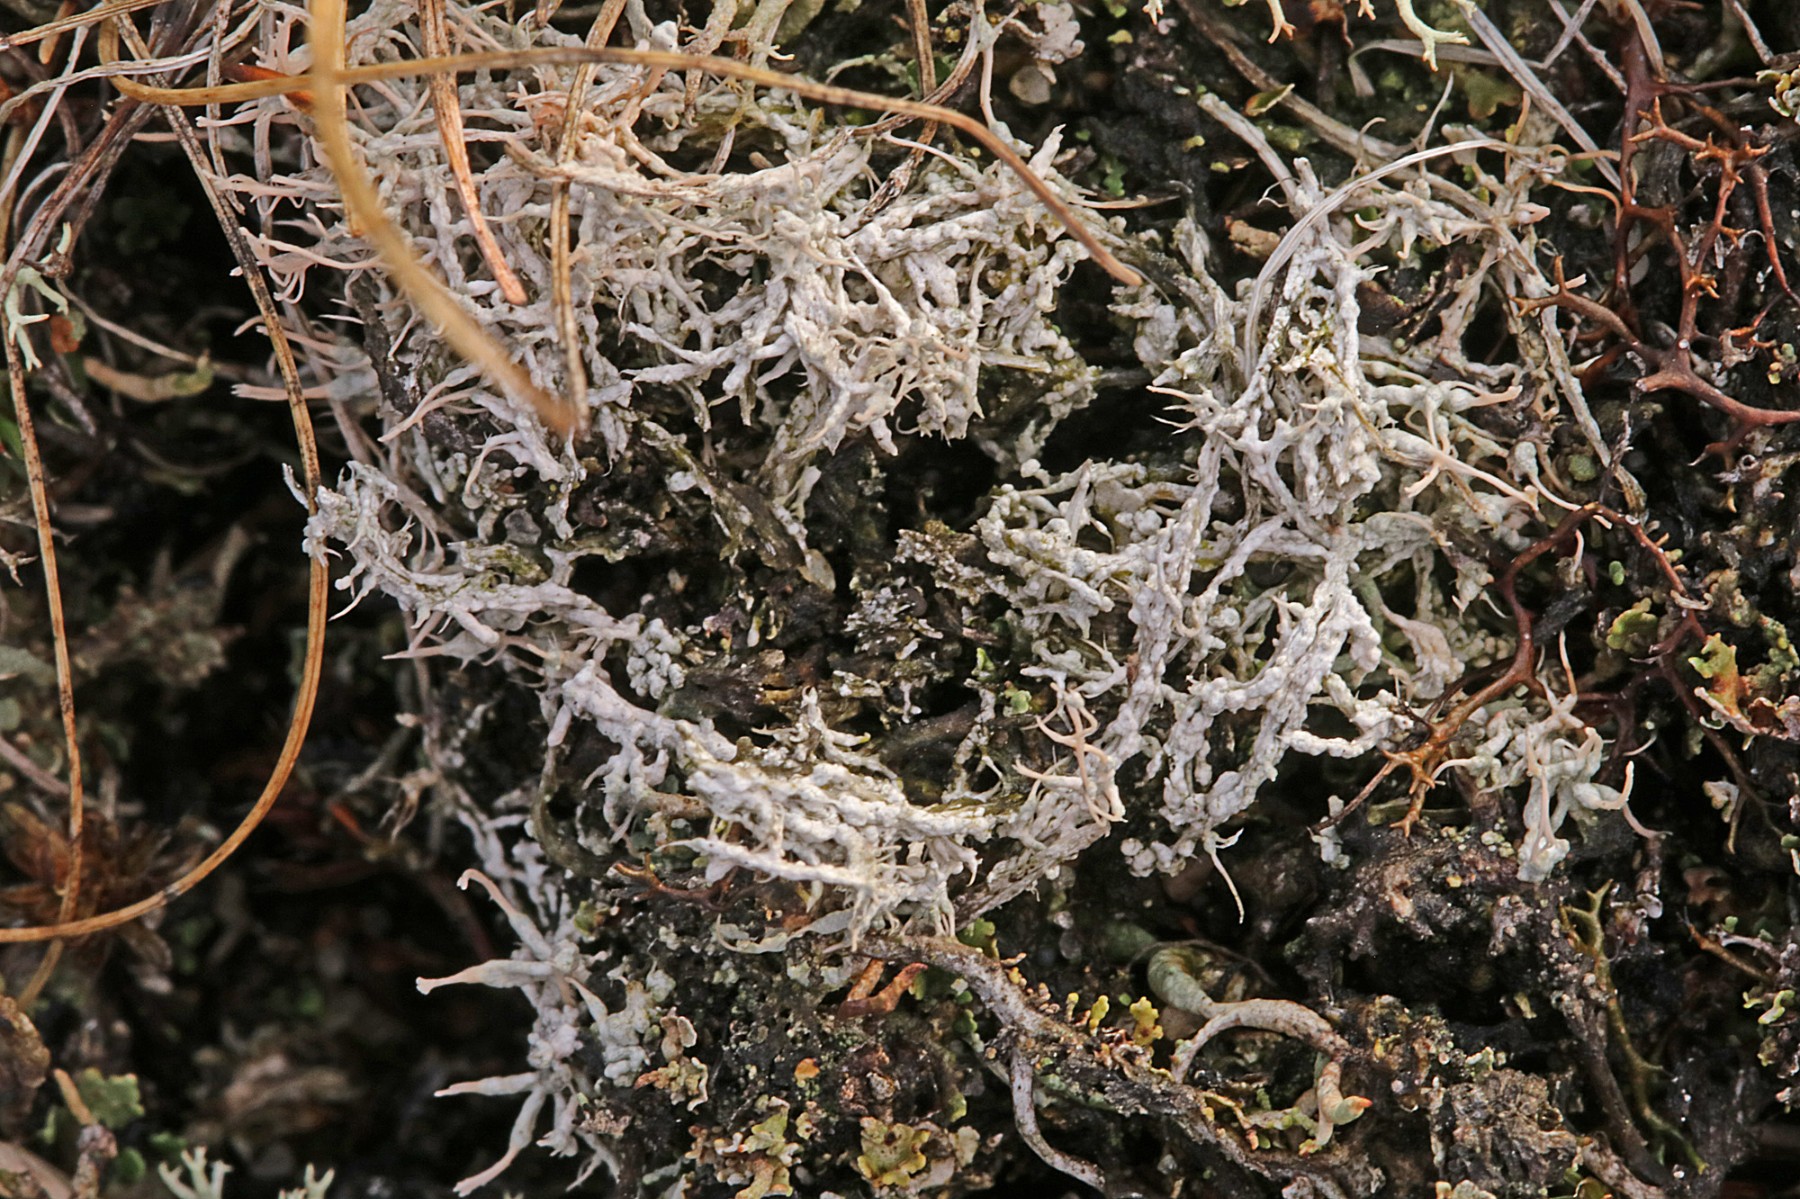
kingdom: Fungi
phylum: Ascomycota
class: Lecanoromycetes
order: Pertusariales
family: Ochrolechiaceae
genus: Ochrolechia
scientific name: Ochrolechia frigida
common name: fjeld-blegskivelav
